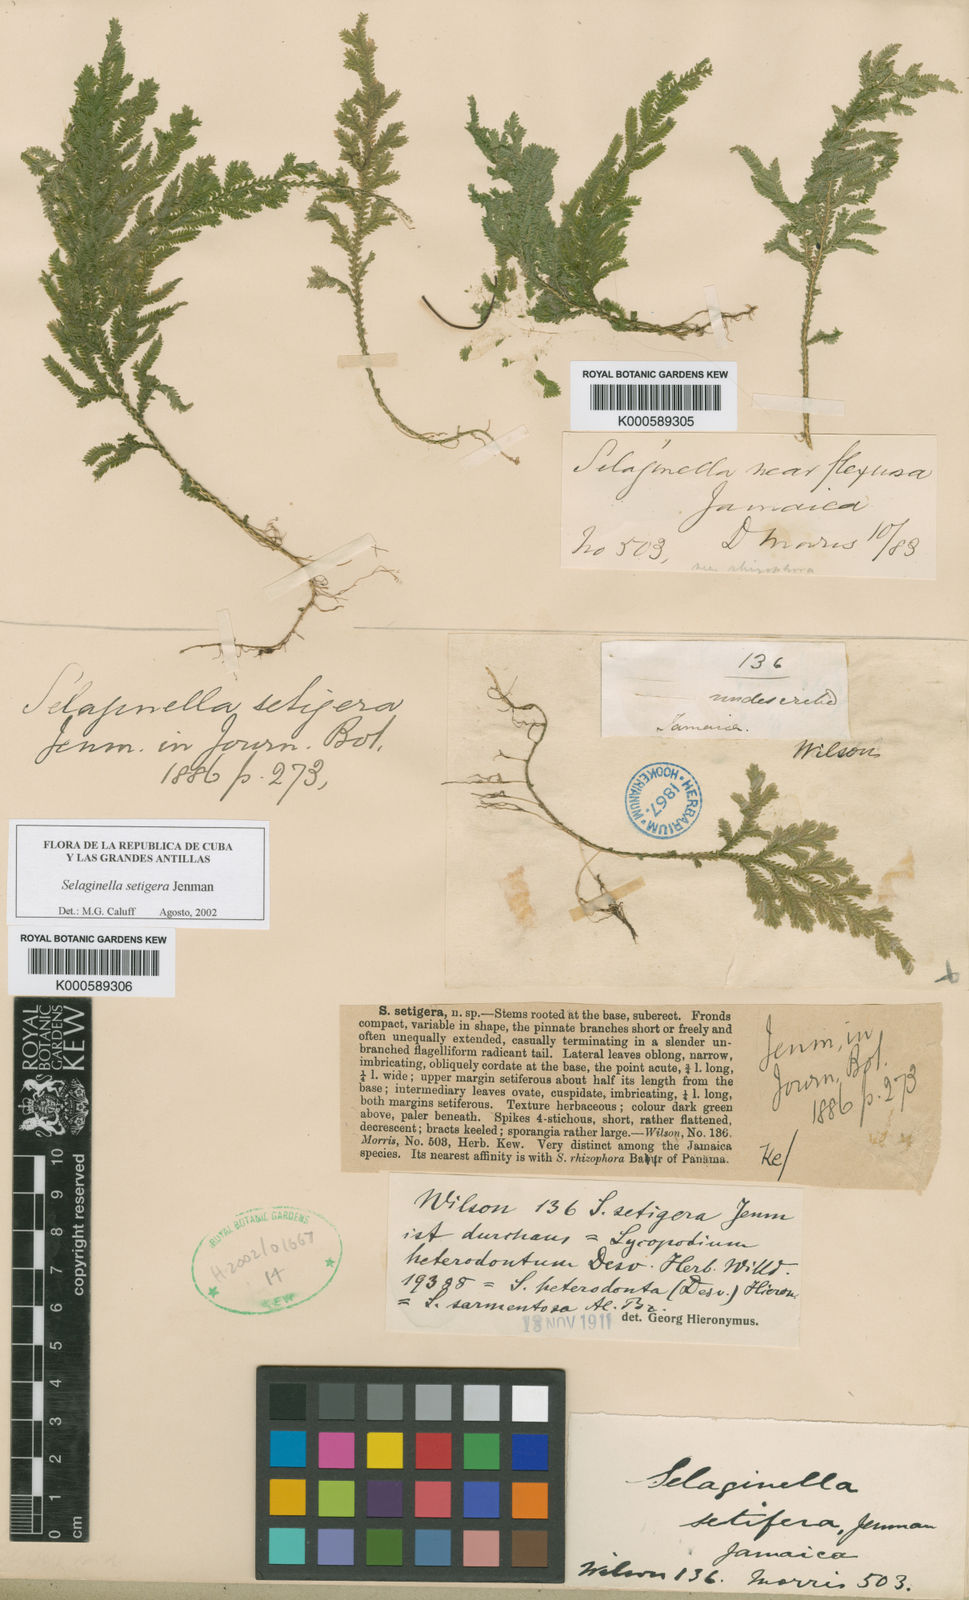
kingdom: Plantae
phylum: Tracheophyta
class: Lycopodiopsida
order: Selaginellales
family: Selaginellaceae
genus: Selaginella
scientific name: Selaginella hispida
